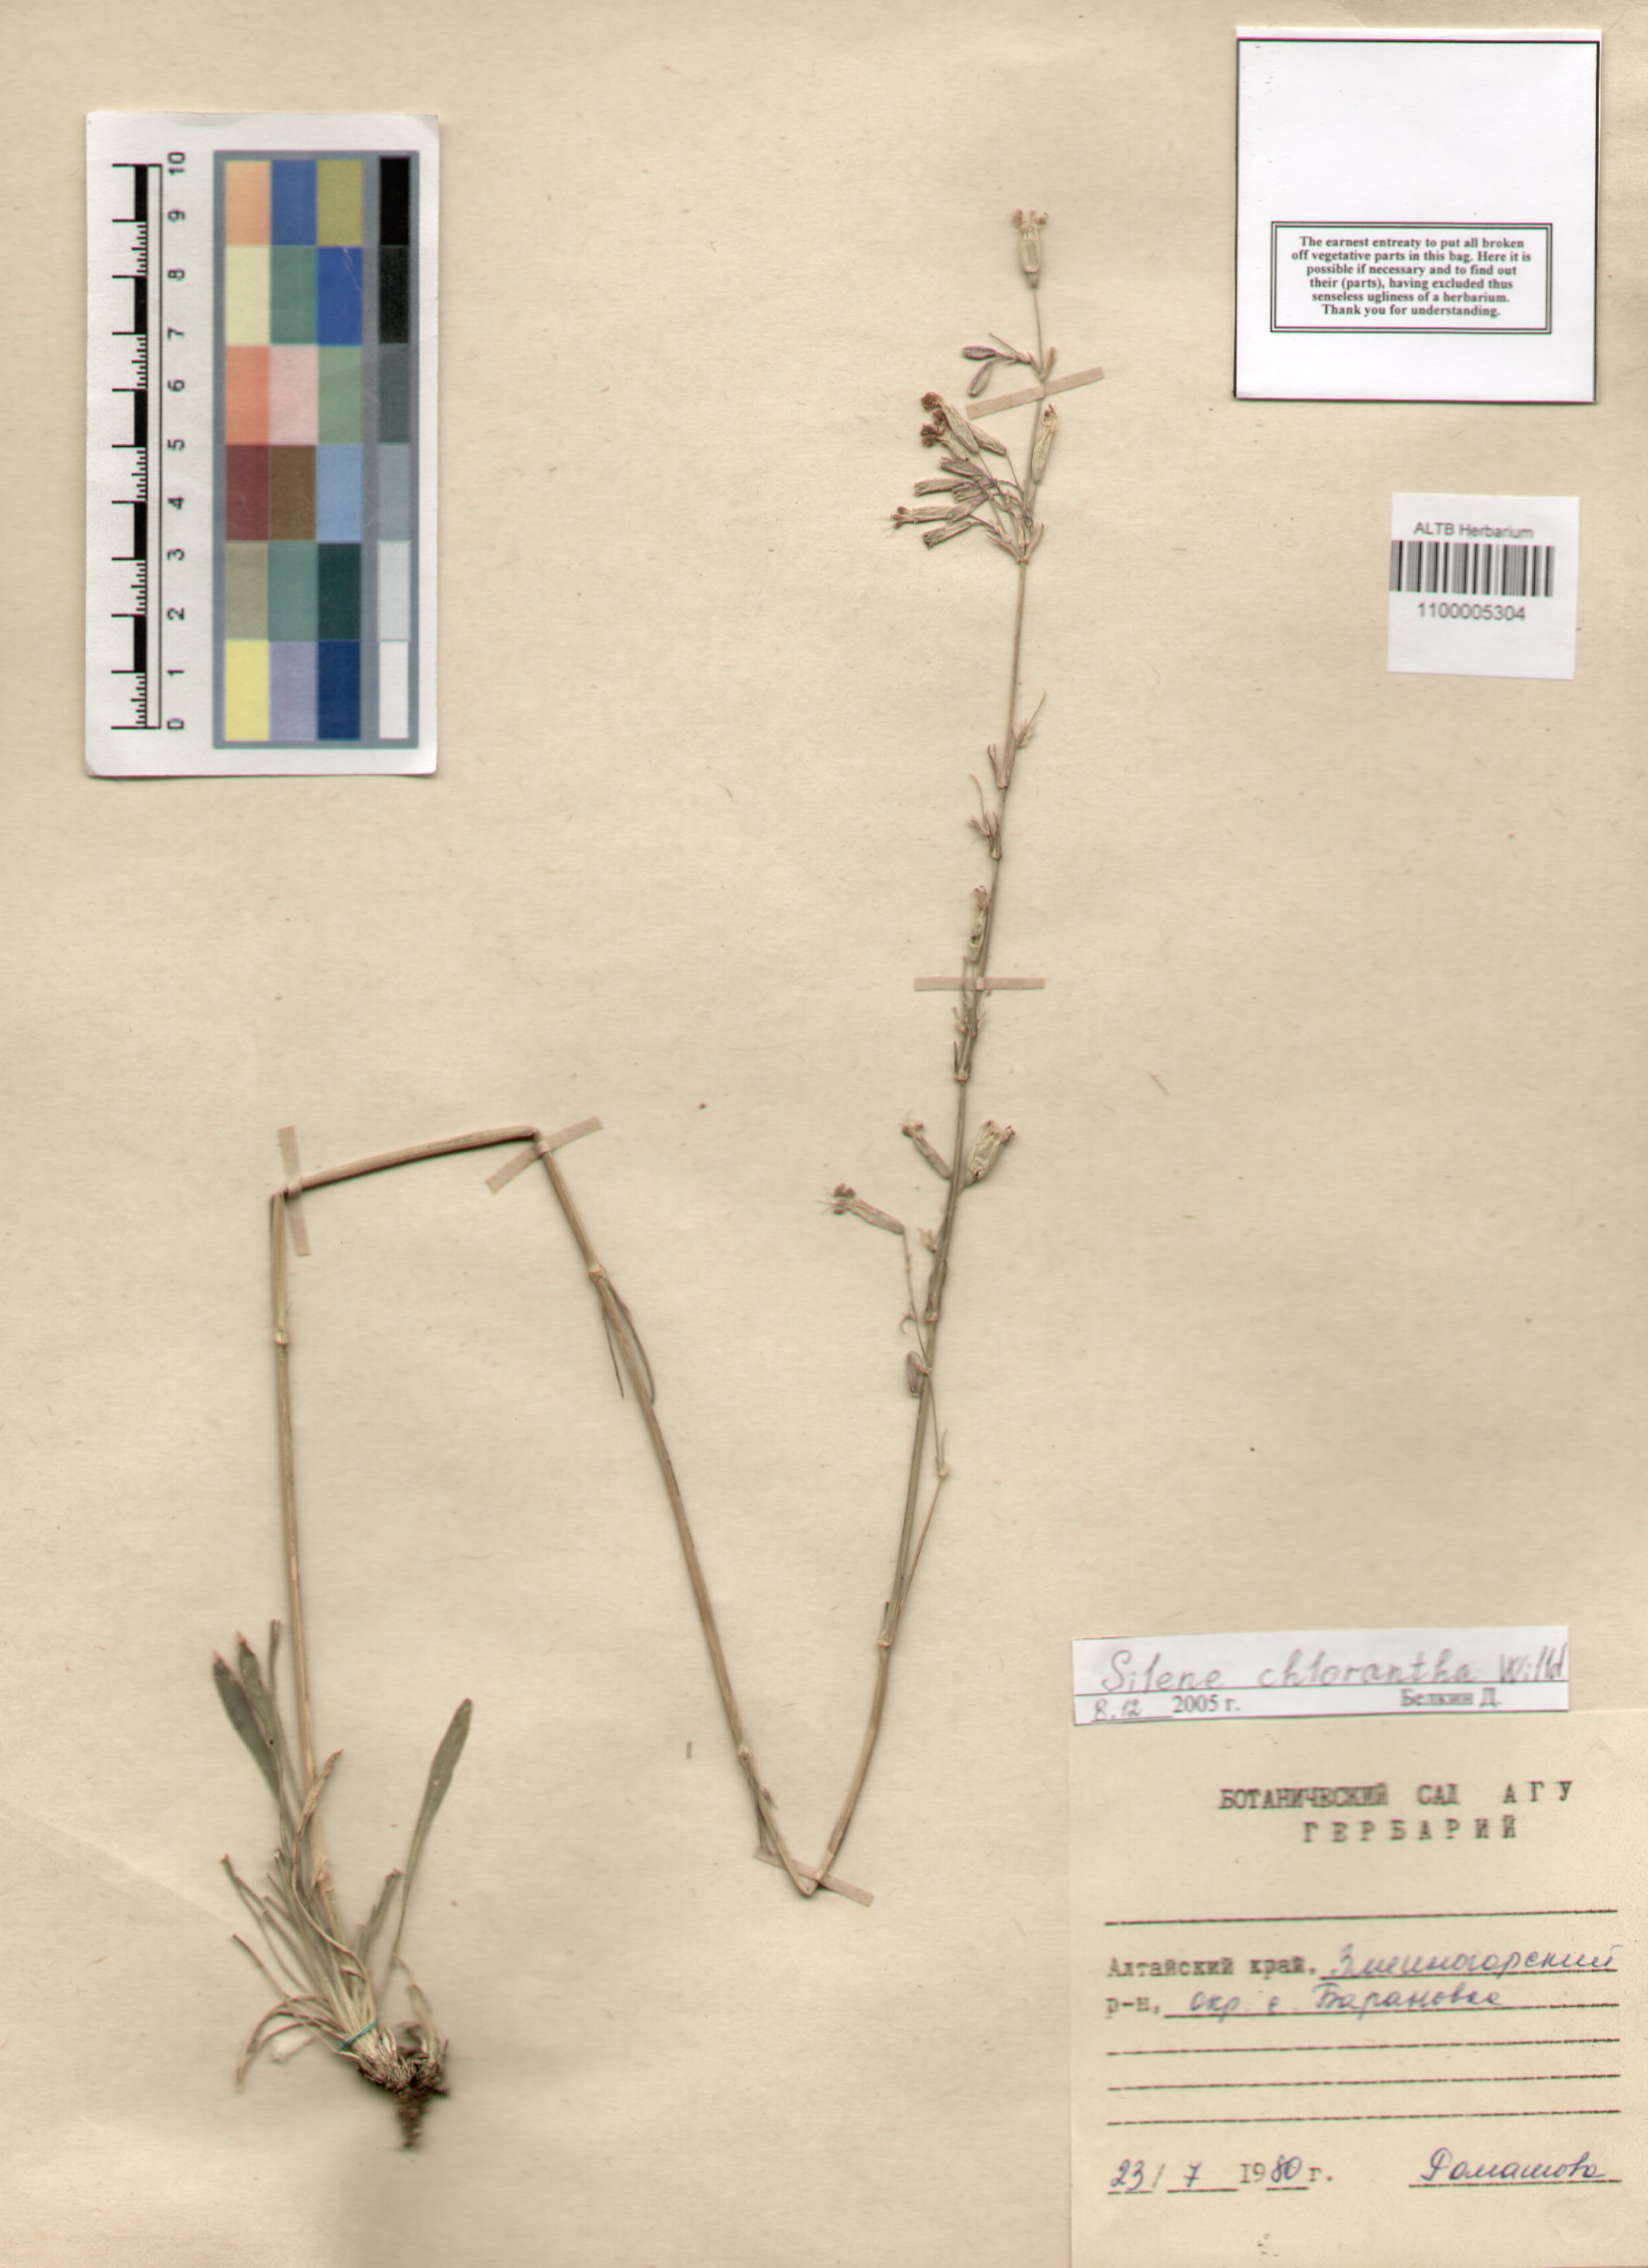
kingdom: Plantae
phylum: Tracheophyta
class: Magnoliopsida
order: Caryophyllales
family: Caryophyllaceae
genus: Silene
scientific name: Silene chlorantha
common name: Yellowgreen catchfly
